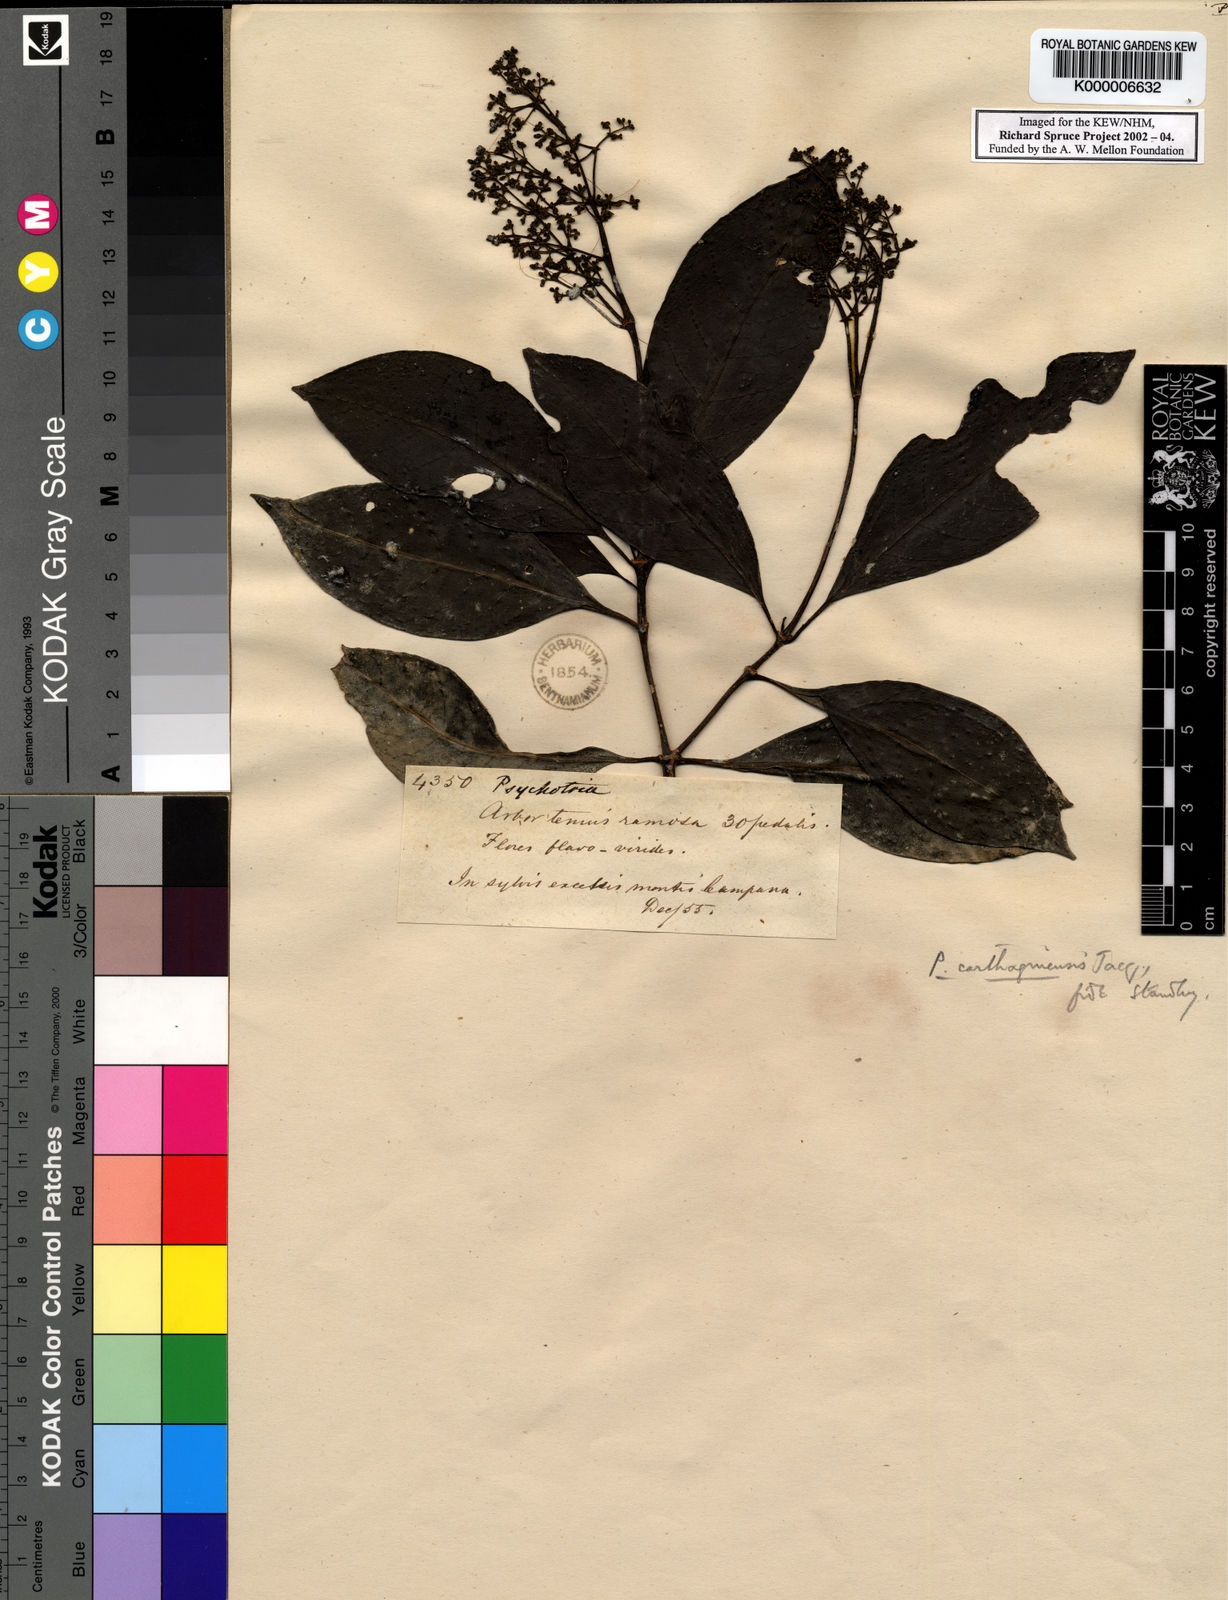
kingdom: Plantae
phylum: Tracheophyta
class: Magnoliopsida
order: Gentianales
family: Rubiaceae
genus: Psychotria
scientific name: Psychotria carthagenensis
